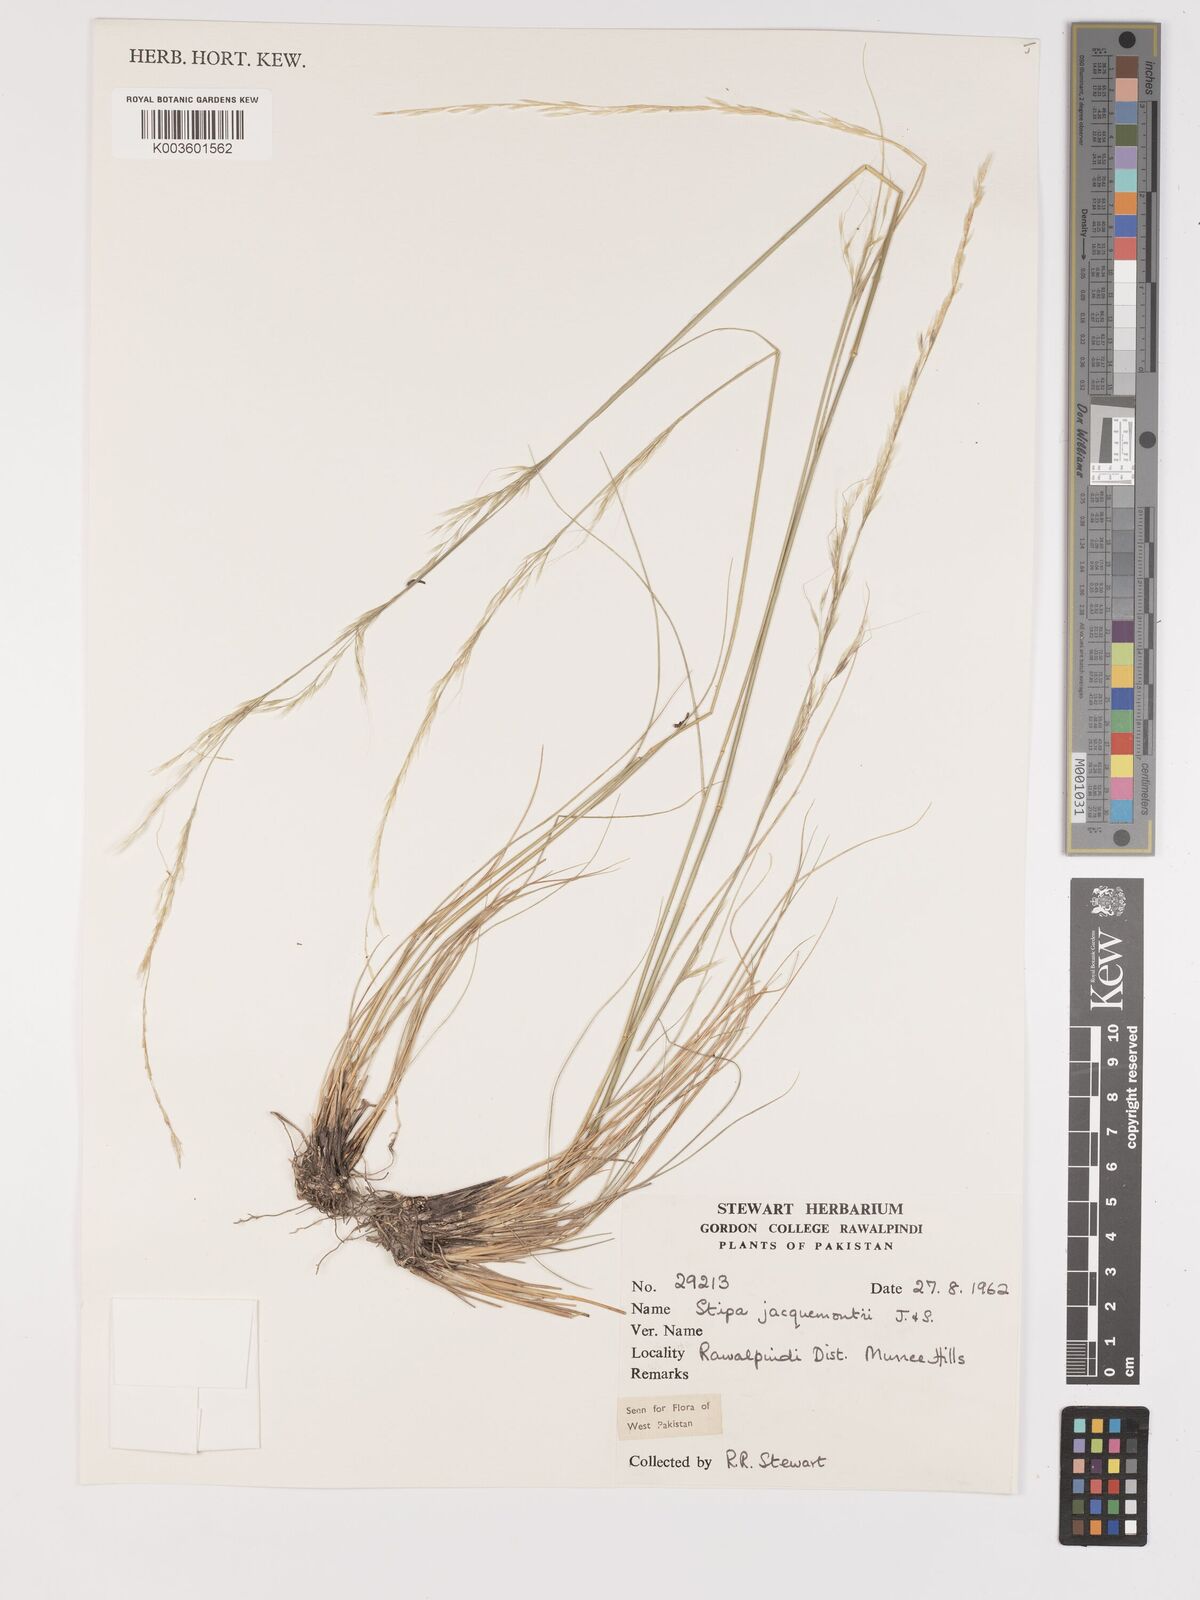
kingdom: Plantae
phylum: Tracheophyta
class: Liliopsida
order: Poales
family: Poaceae
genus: Achnatherum
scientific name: Achnatherum jacquemontii
